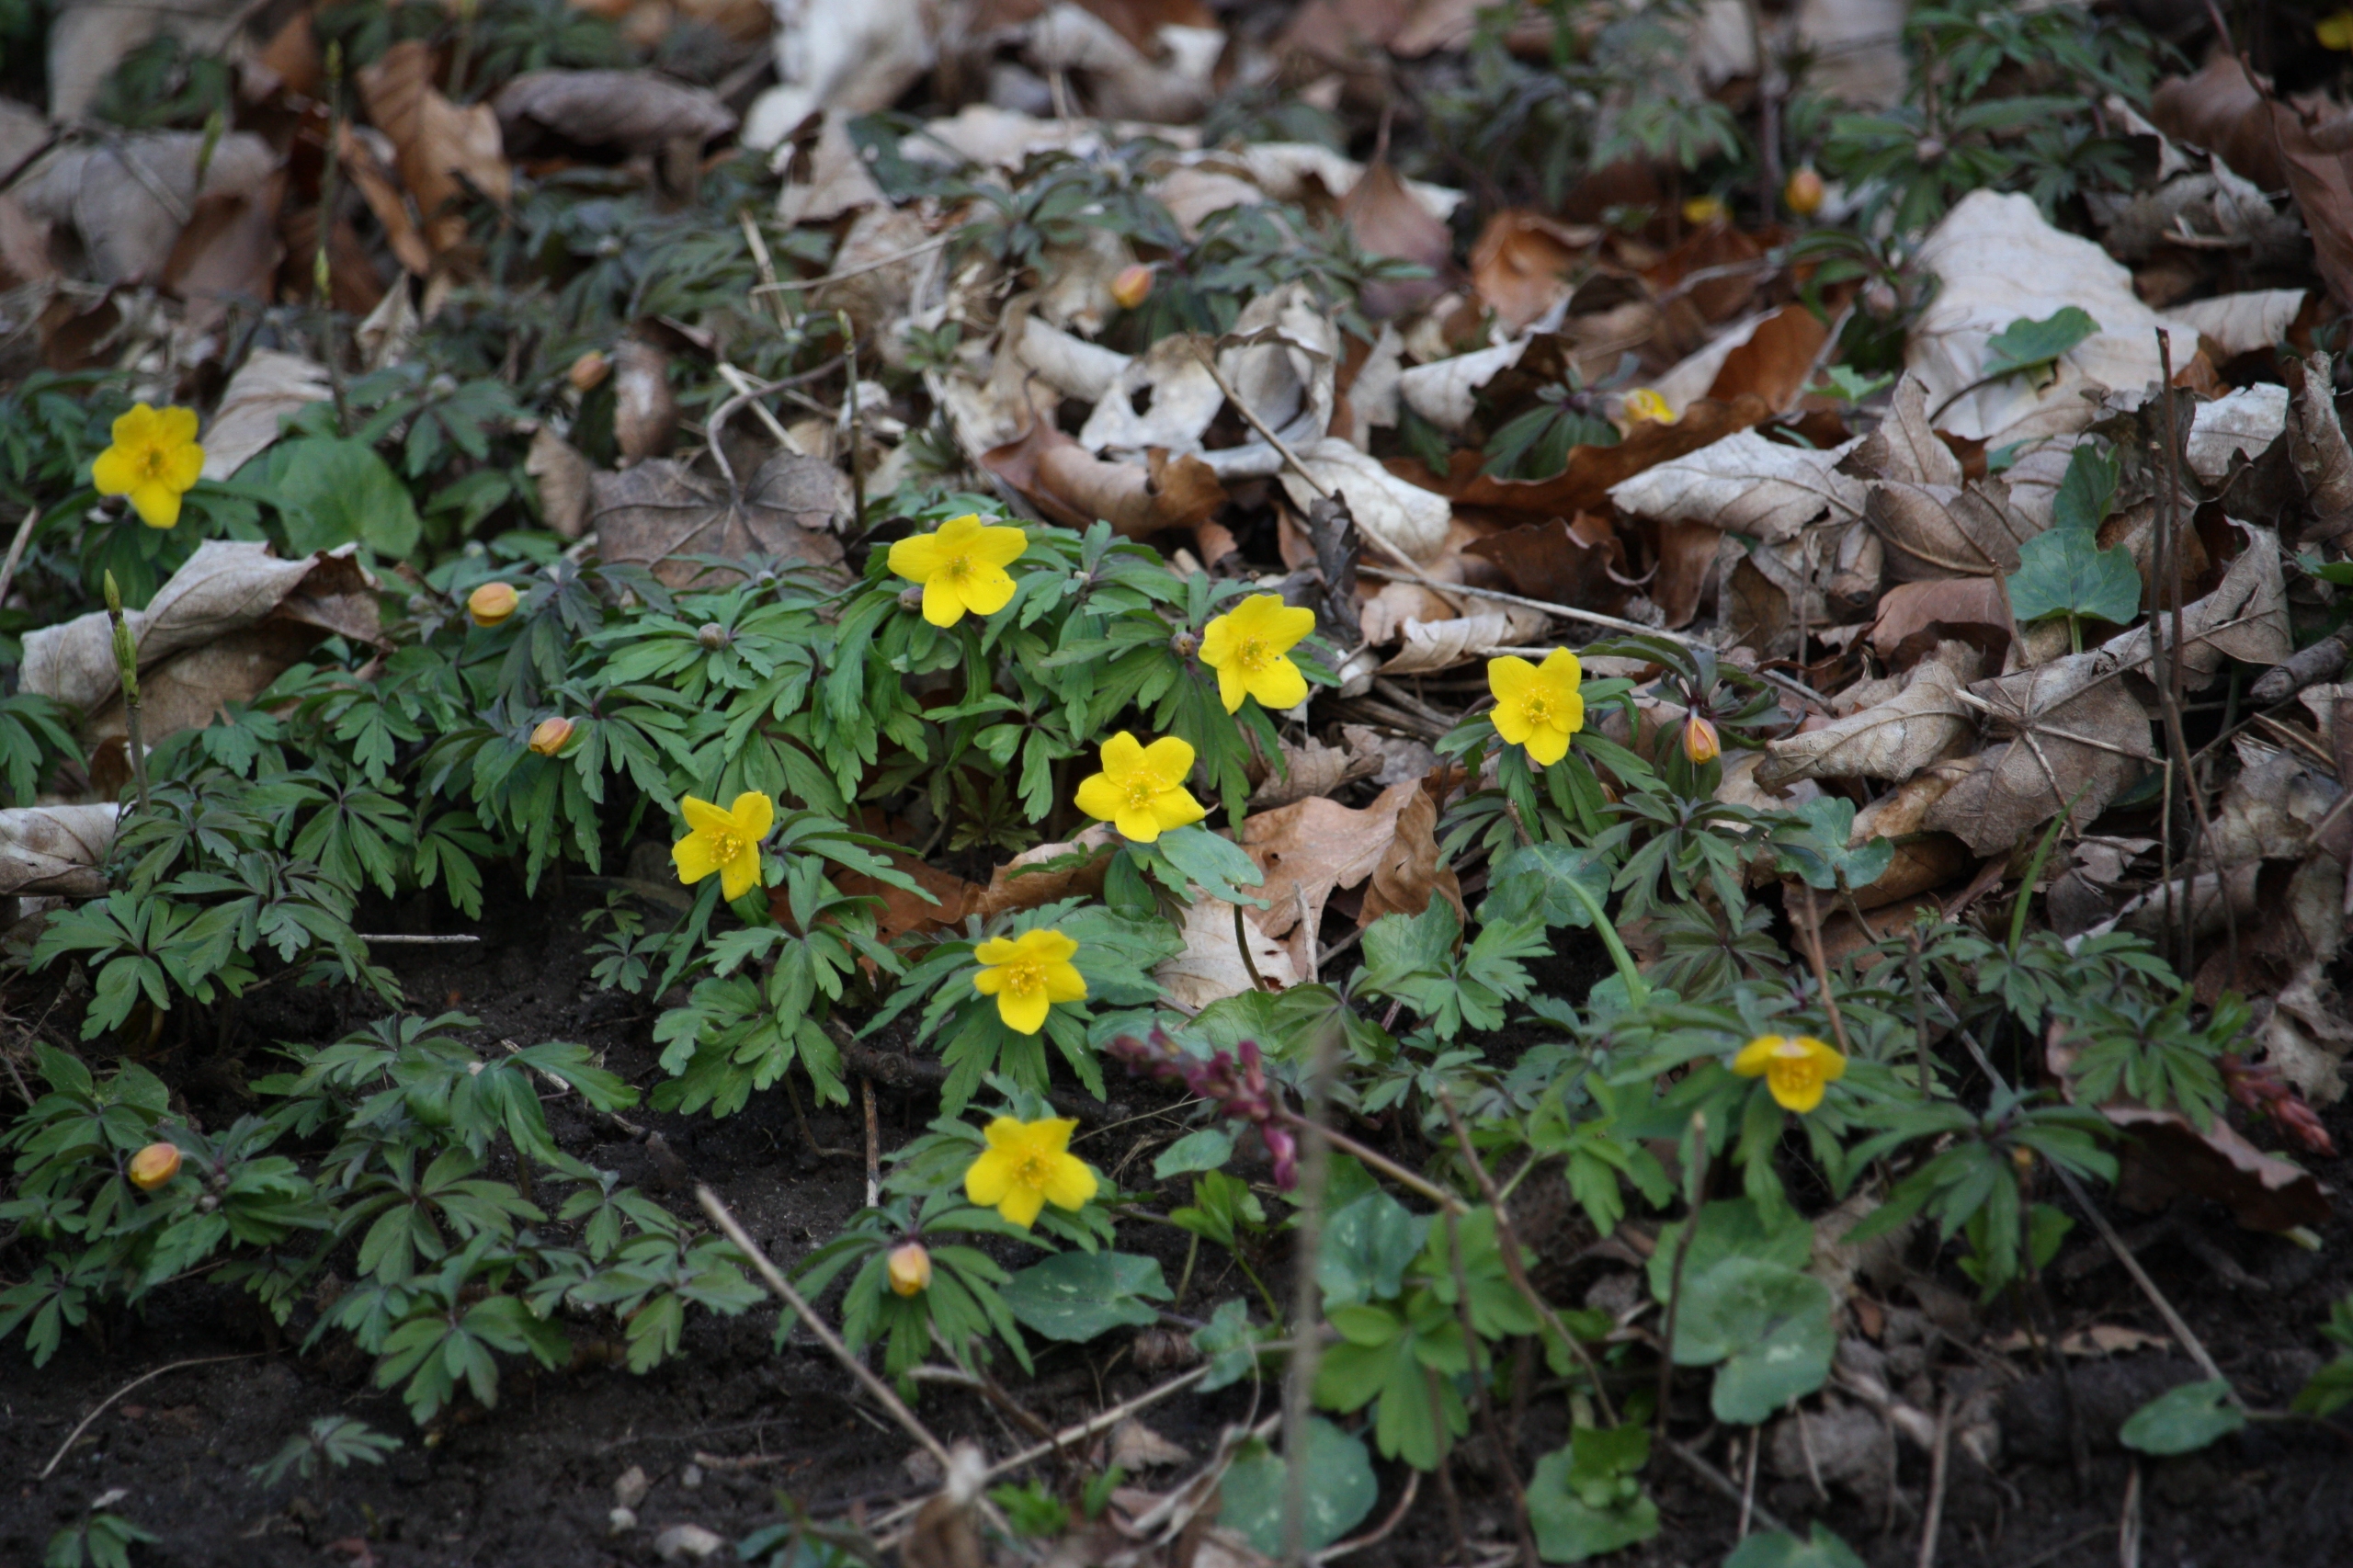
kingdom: Plantae
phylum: Tracheophyta
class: Magnoliopsida
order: Ranunculales
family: Ranunculaceae
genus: Anemone
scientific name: Anemone ranunculoides
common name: Gul anemone
